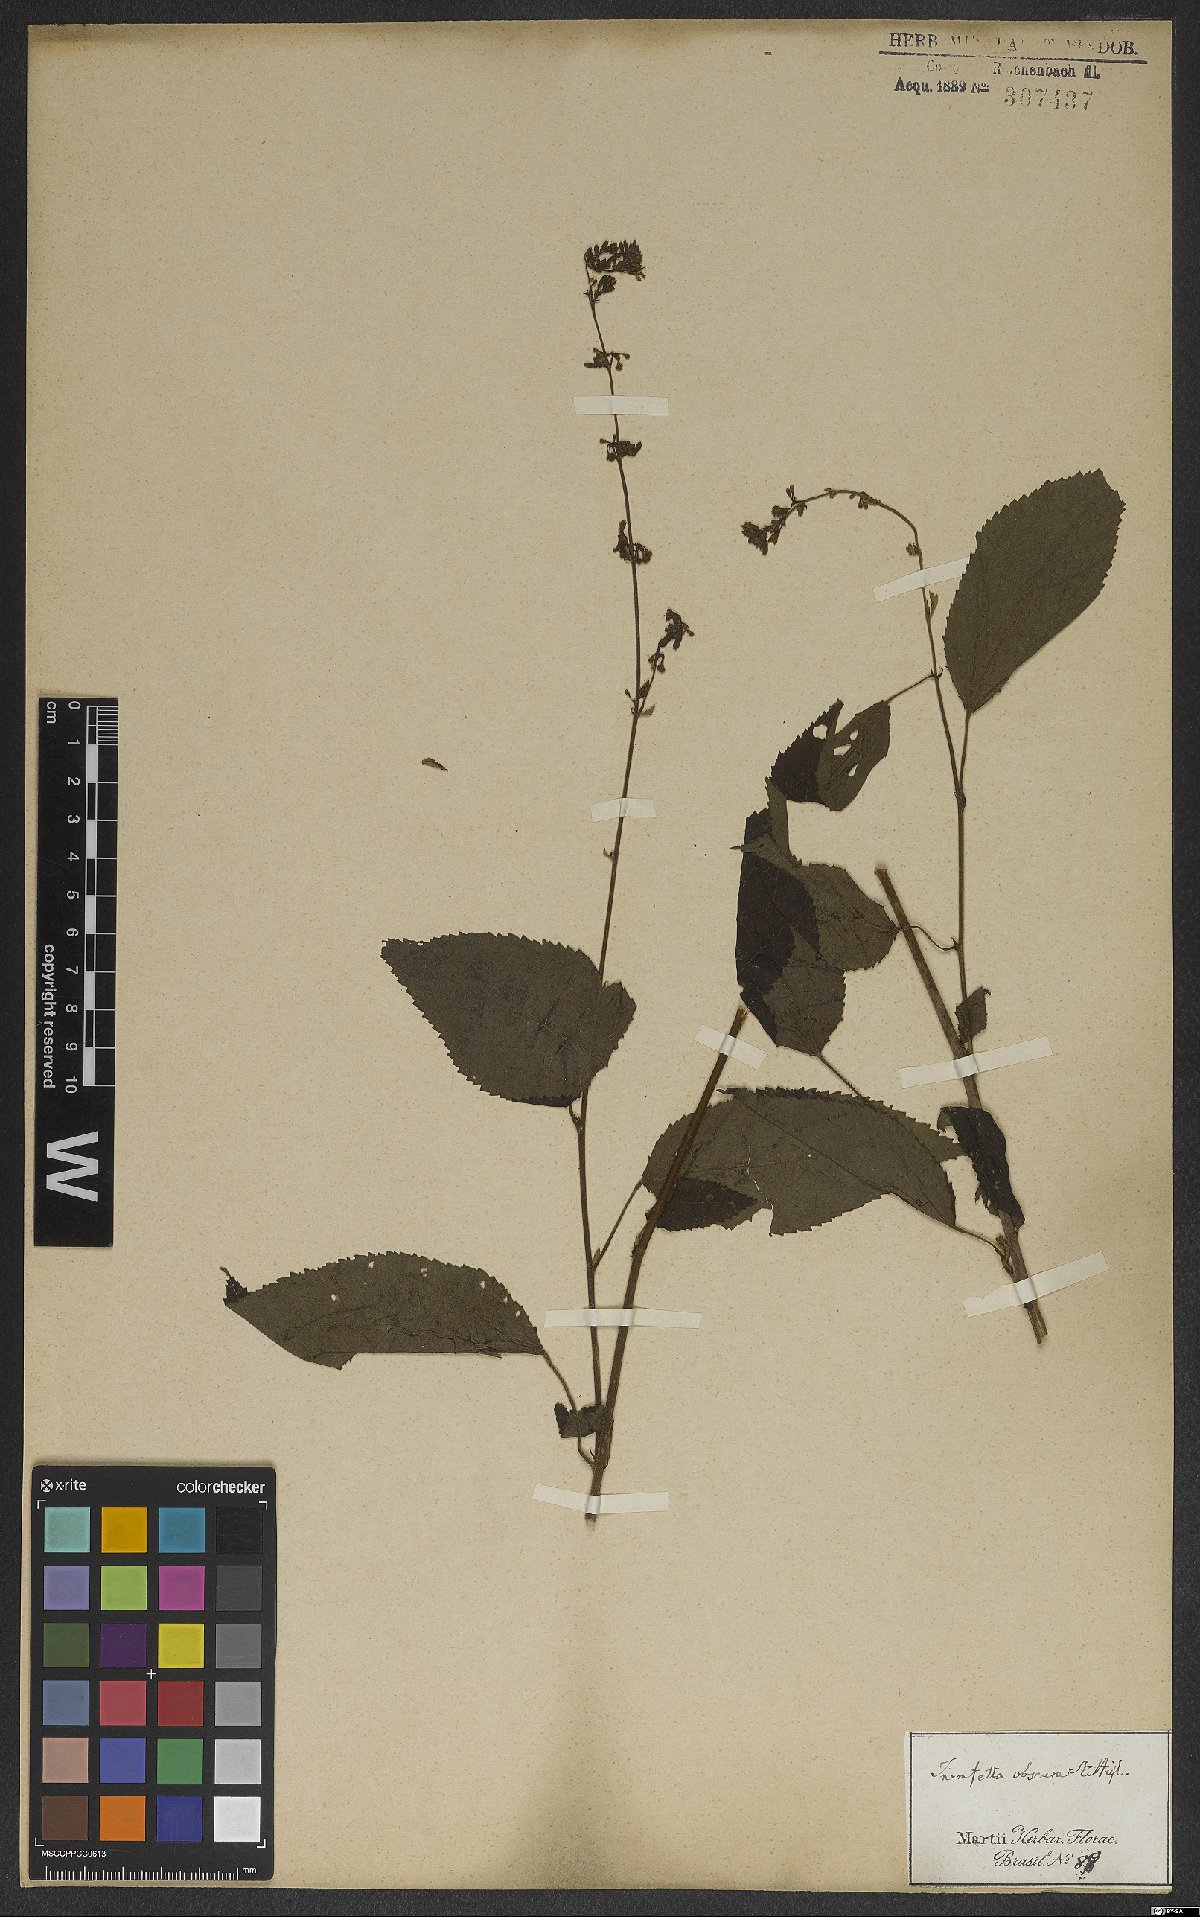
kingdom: Plantae
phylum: Tracheophyta
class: Magnoliopsida
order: Malvales
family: Malvaceae
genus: Triumfetta
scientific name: Triumfetta semitriloba
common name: Sacramento burbark
